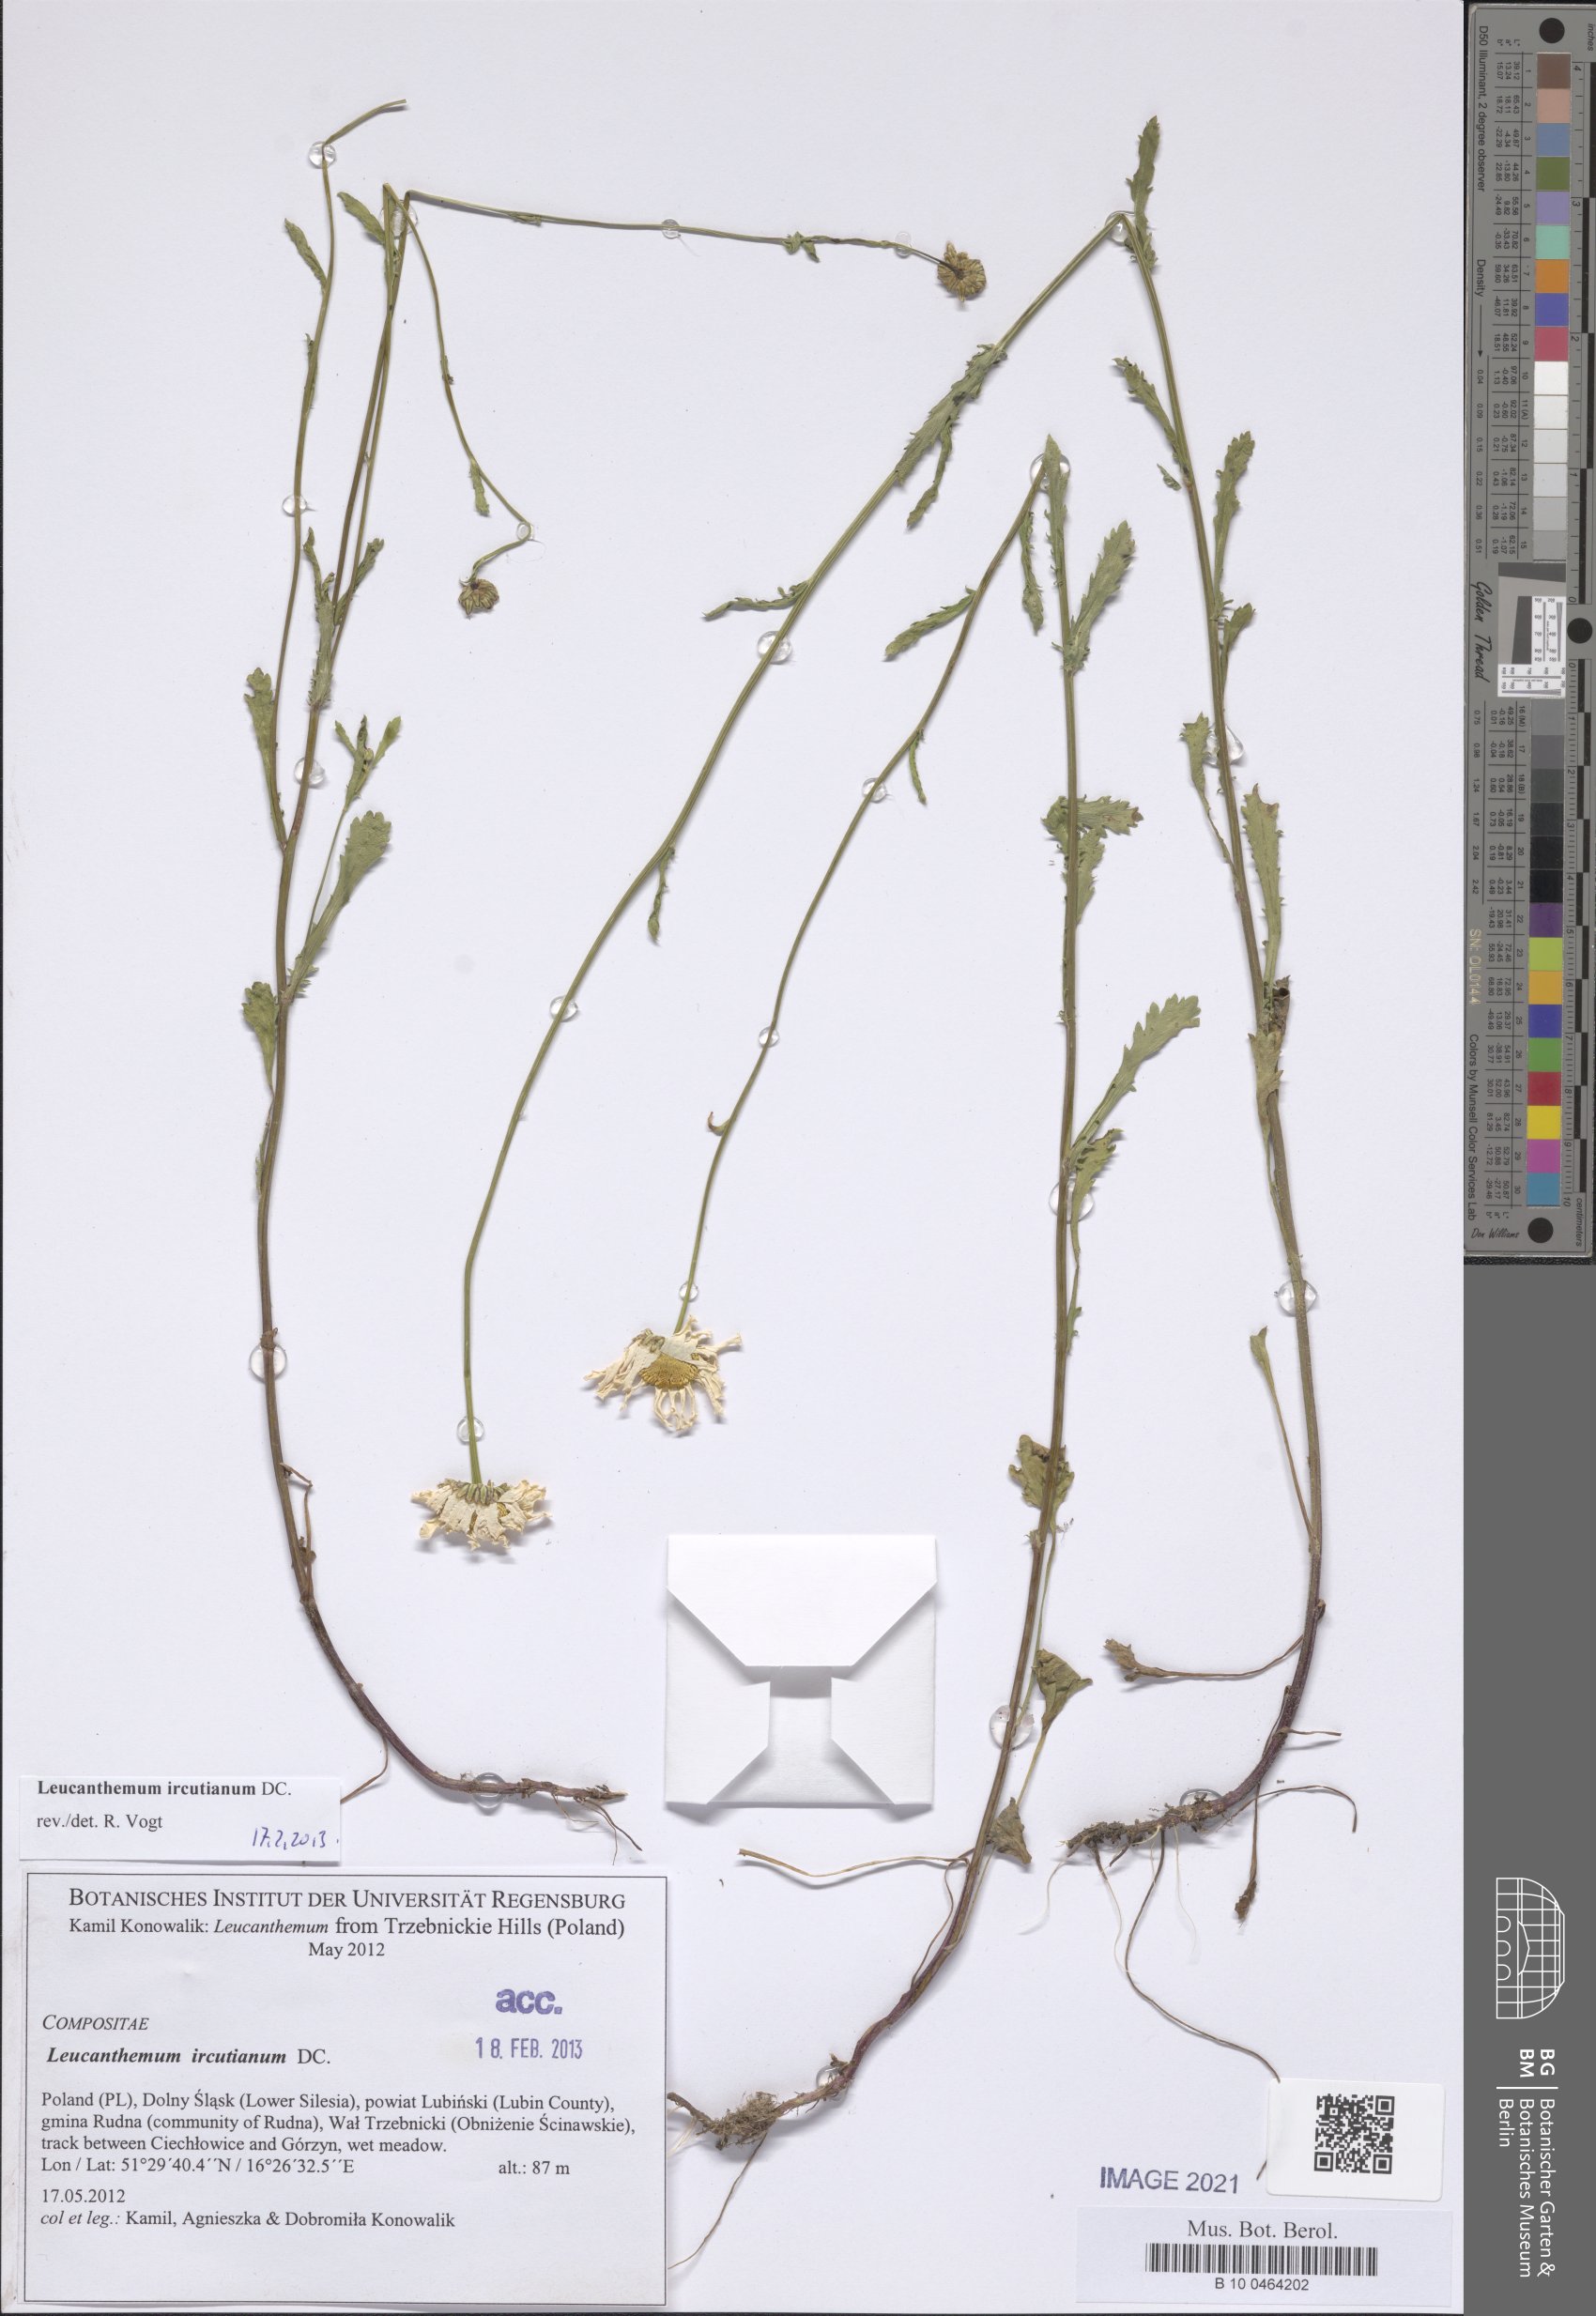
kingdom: Plantae
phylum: Tracheophyta
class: Magnoliopsida
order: Asterales
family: Asteraceae
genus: Leucanthemum
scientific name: Leucanthemum vulgare
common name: Oxeye daisy
